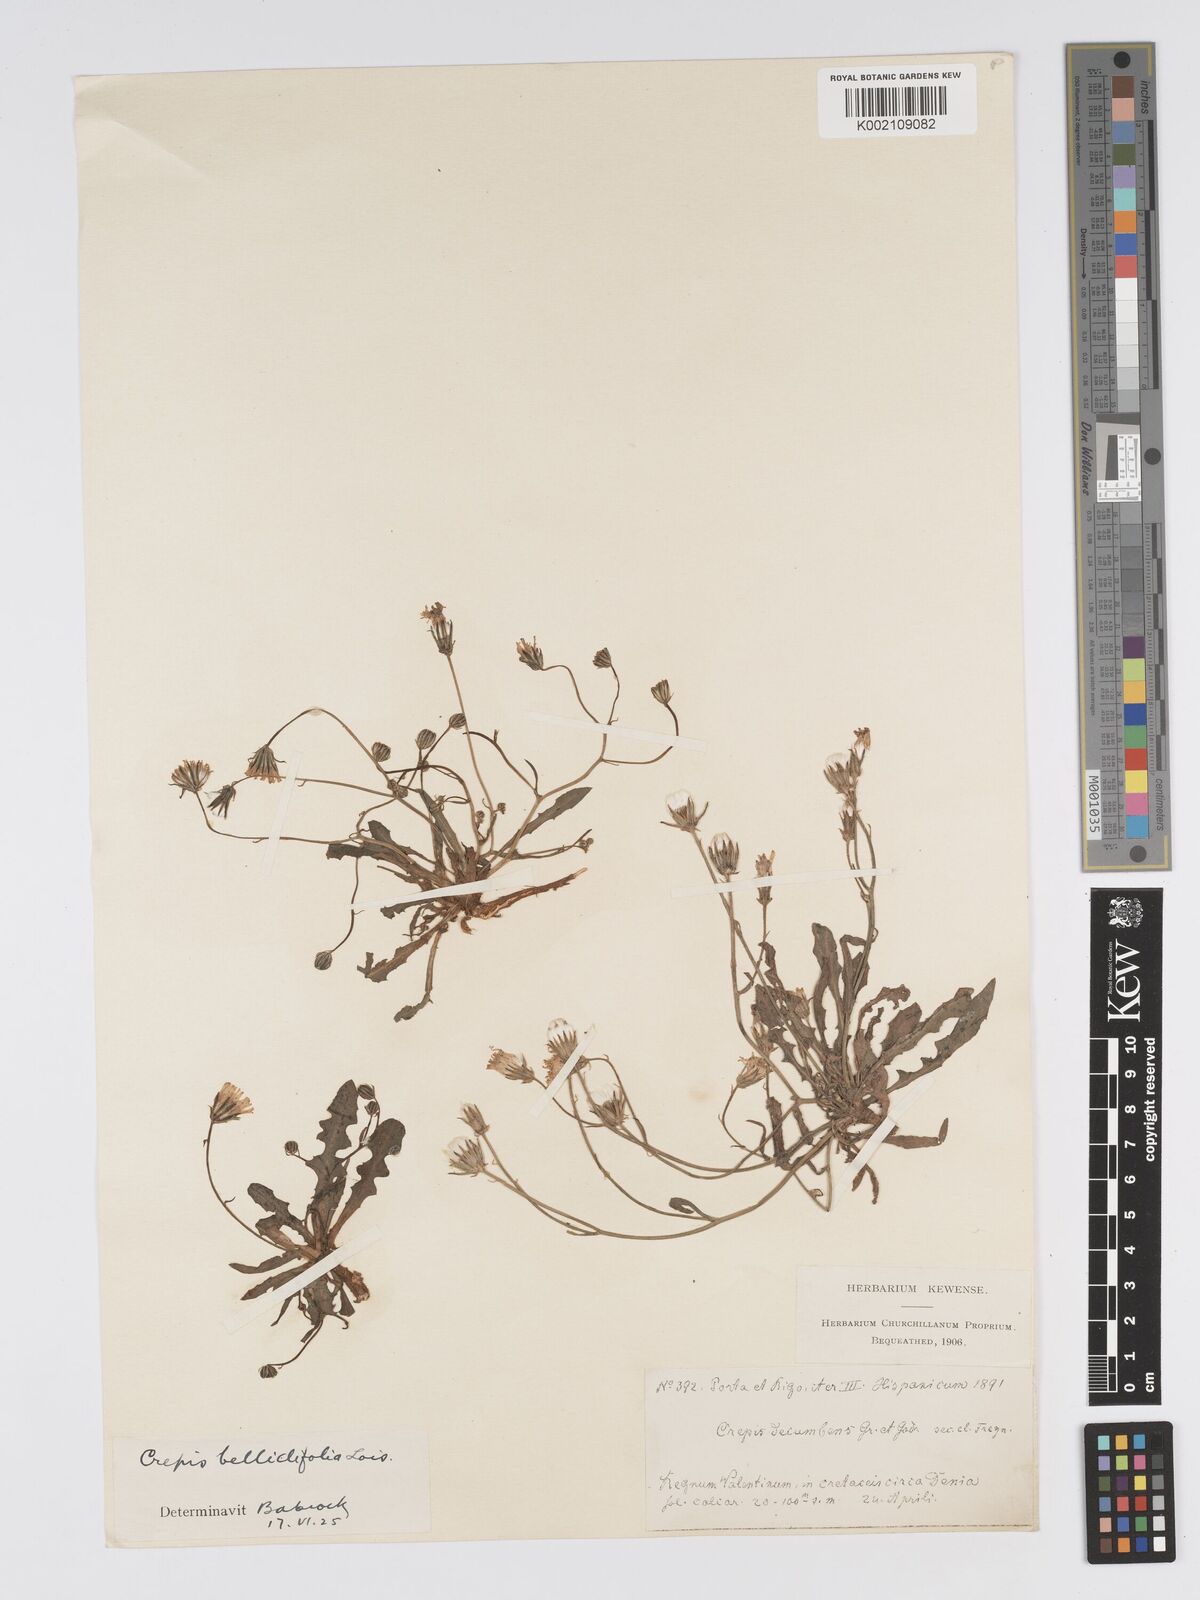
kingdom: Plantae
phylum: Tracheophyta
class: Magnoliopsida
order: Asterales
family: Asteraceae
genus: Crepis
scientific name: Crepis bellidifolia
